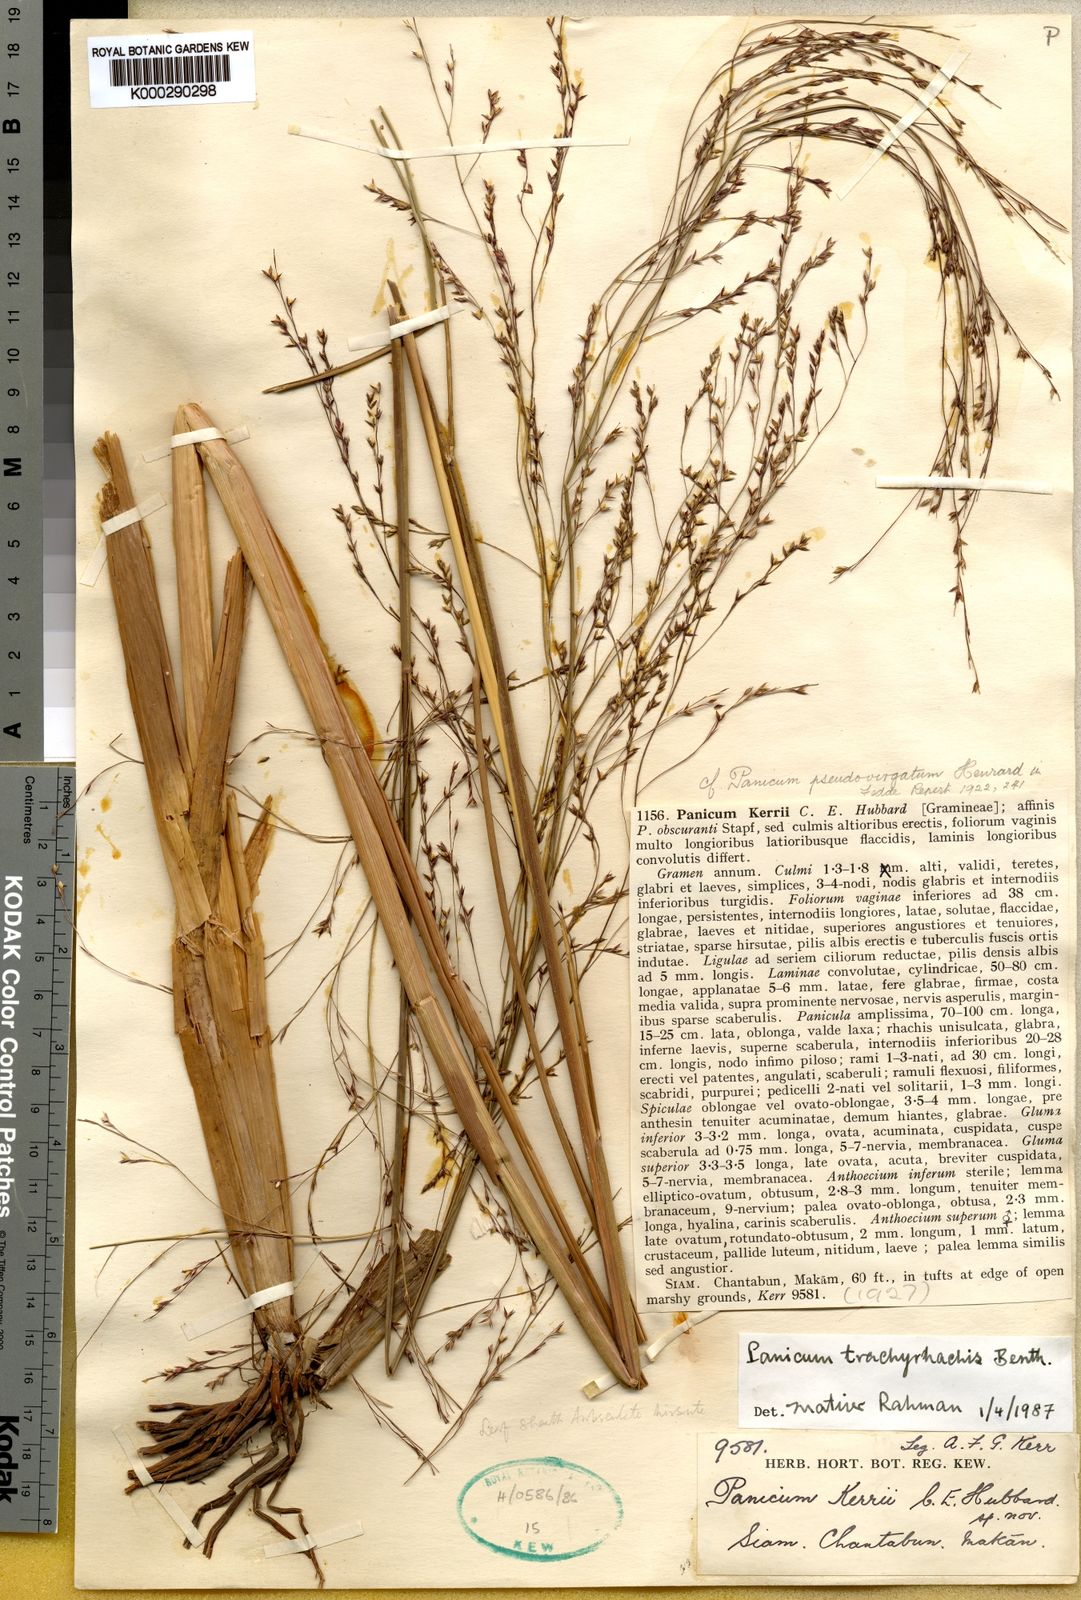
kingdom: Plantae
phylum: Tracheophyta
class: Liliopsida
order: Poales
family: Poaceae
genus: Panicum
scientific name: Panicum trachyrhachis
